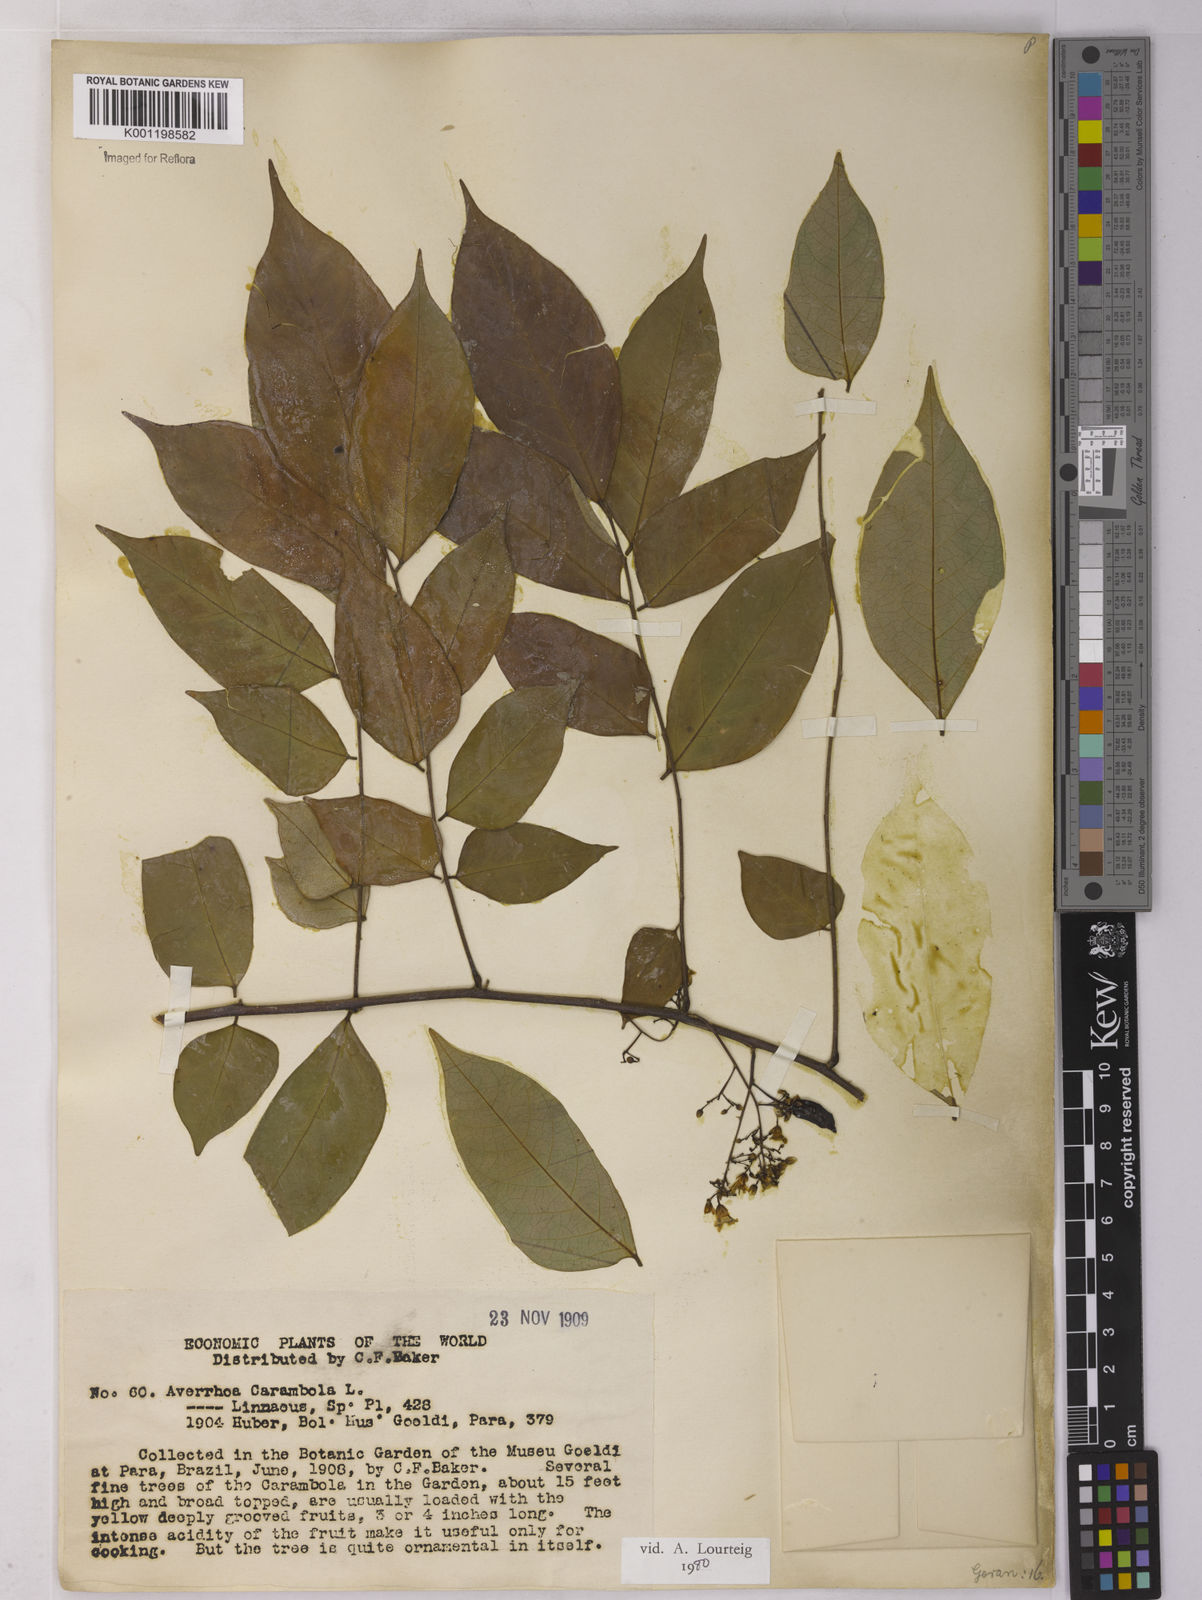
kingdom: Plantae
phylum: Tracheophyta
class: Magnoliopsida
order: Oxalidales
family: Oxalidaceae
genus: Averrhoa
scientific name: Averrhoa carambola
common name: Blimbing
